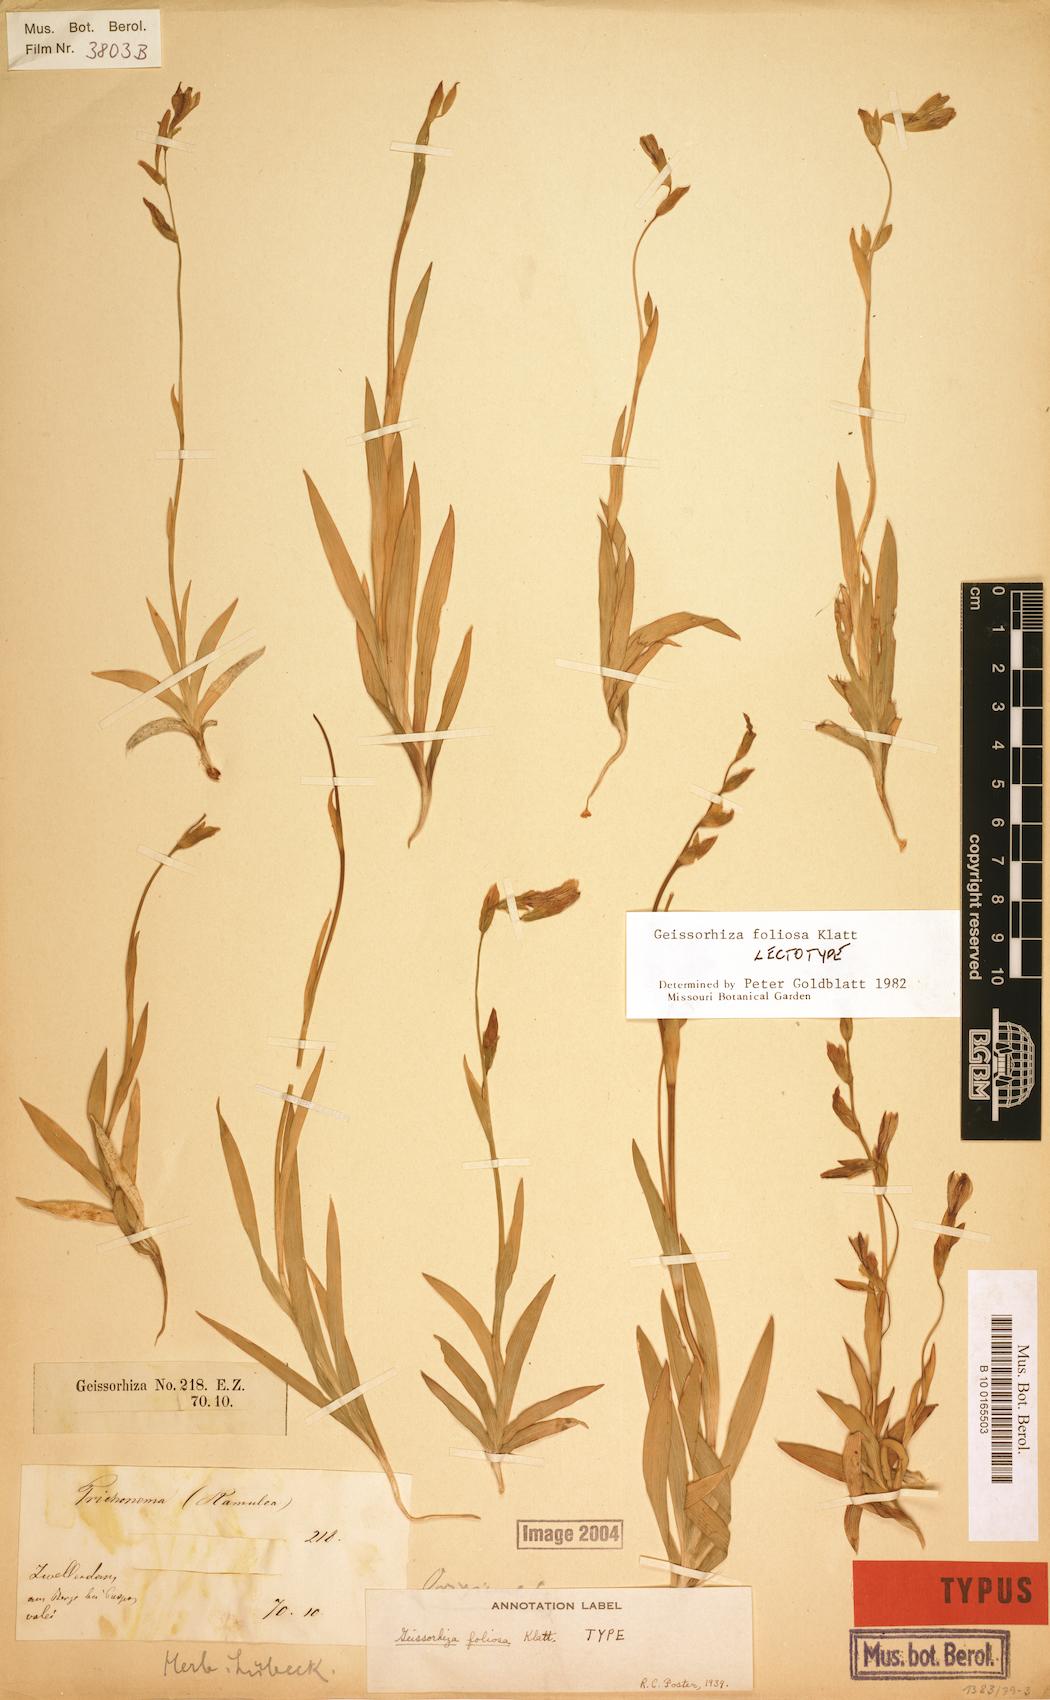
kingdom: Plantae
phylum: Tracheophyta
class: Liliopsida
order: Asparagales
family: Iridaceae
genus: Geissorhiza
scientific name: Geissorhiza foliosa
